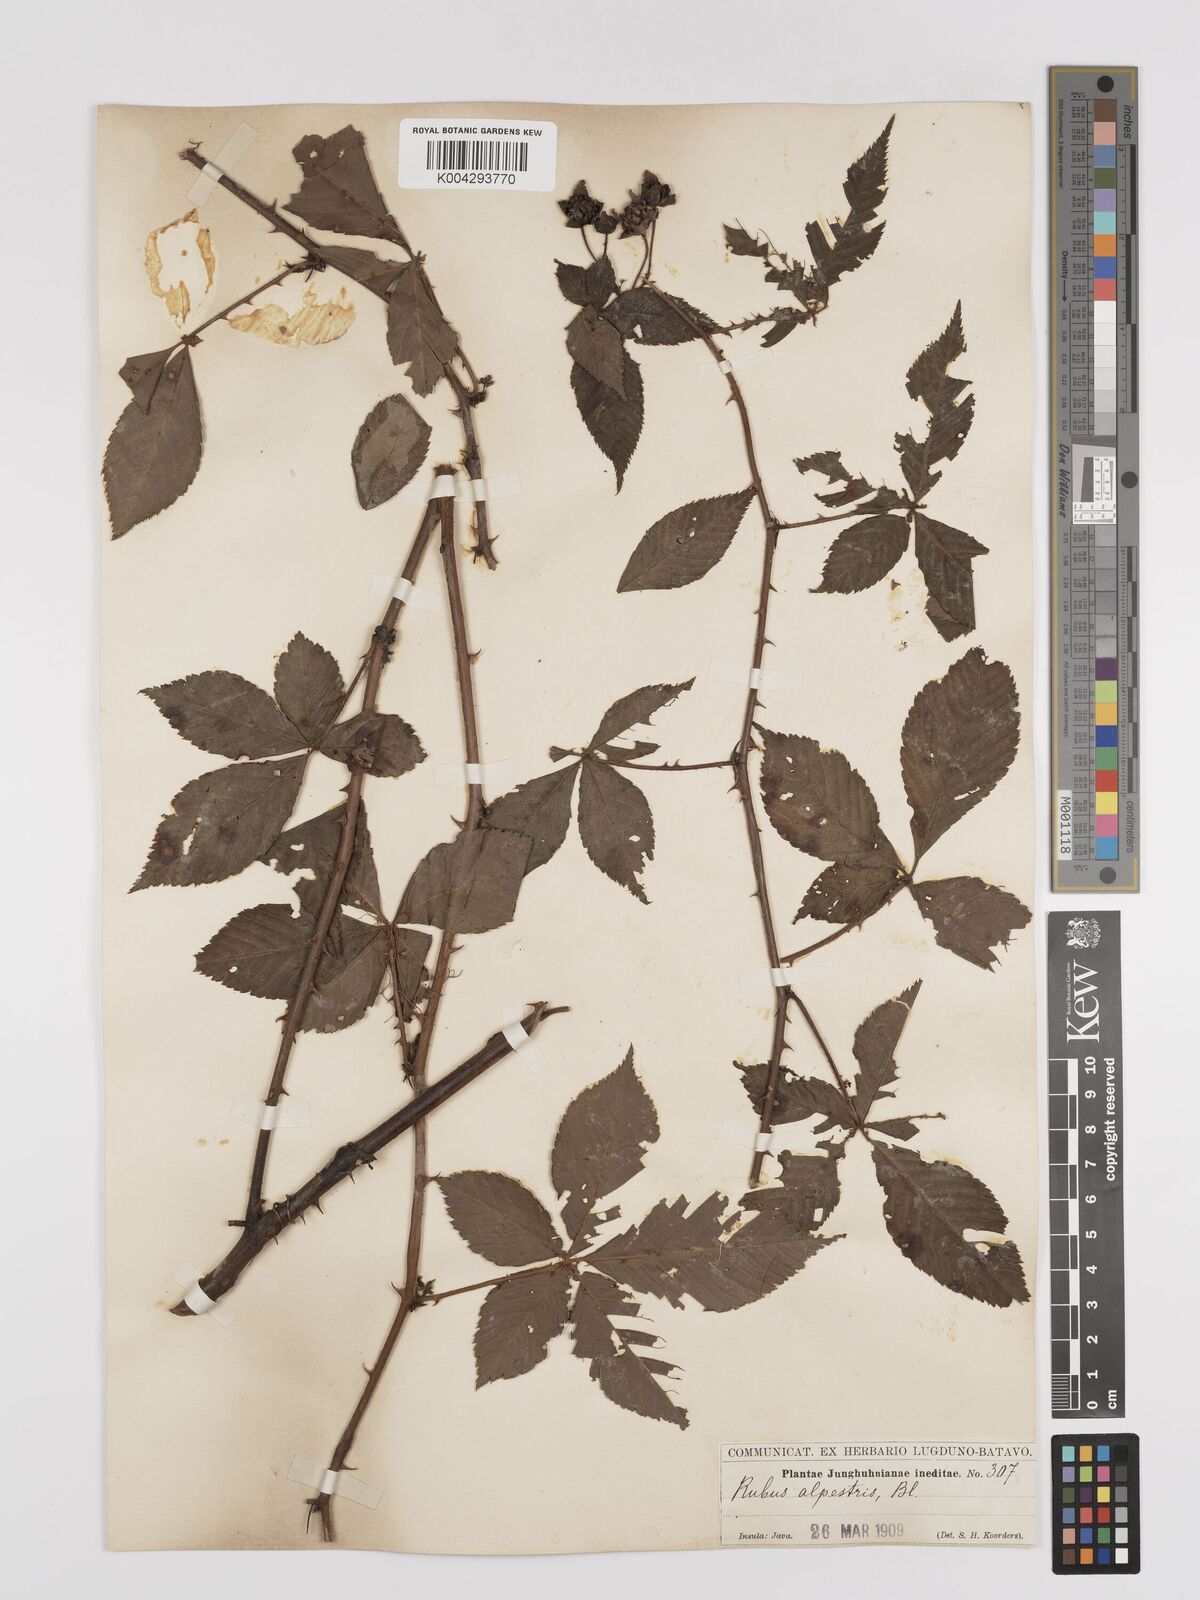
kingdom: Plantae
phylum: Tracheophyta
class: Magnoliopsida
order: Rosales
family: Rosaceae
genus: Rubus
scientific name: Rubus alpestris
